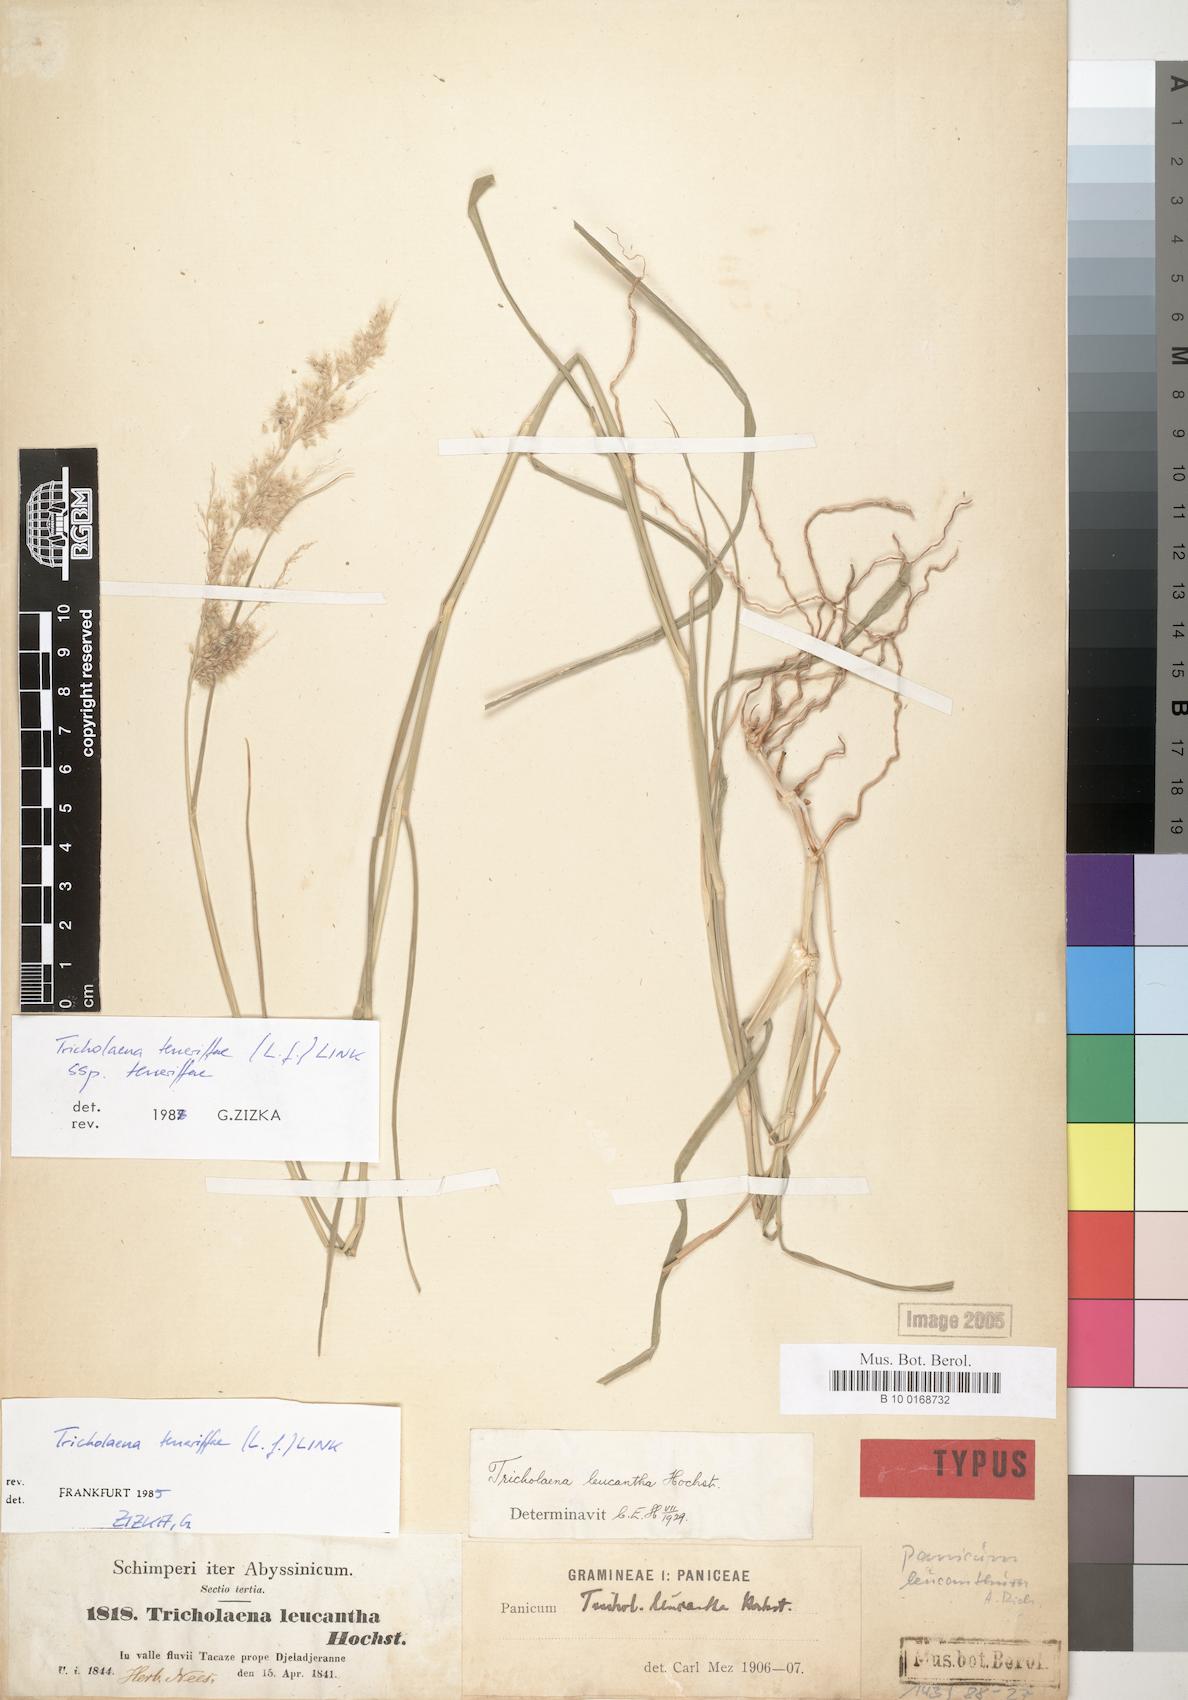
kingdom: Plantae
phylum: Tracheophyta
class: Liliopsida
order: Poales
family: Poaceae
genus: Tricholaena
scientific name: Tricholaena teneriffae
